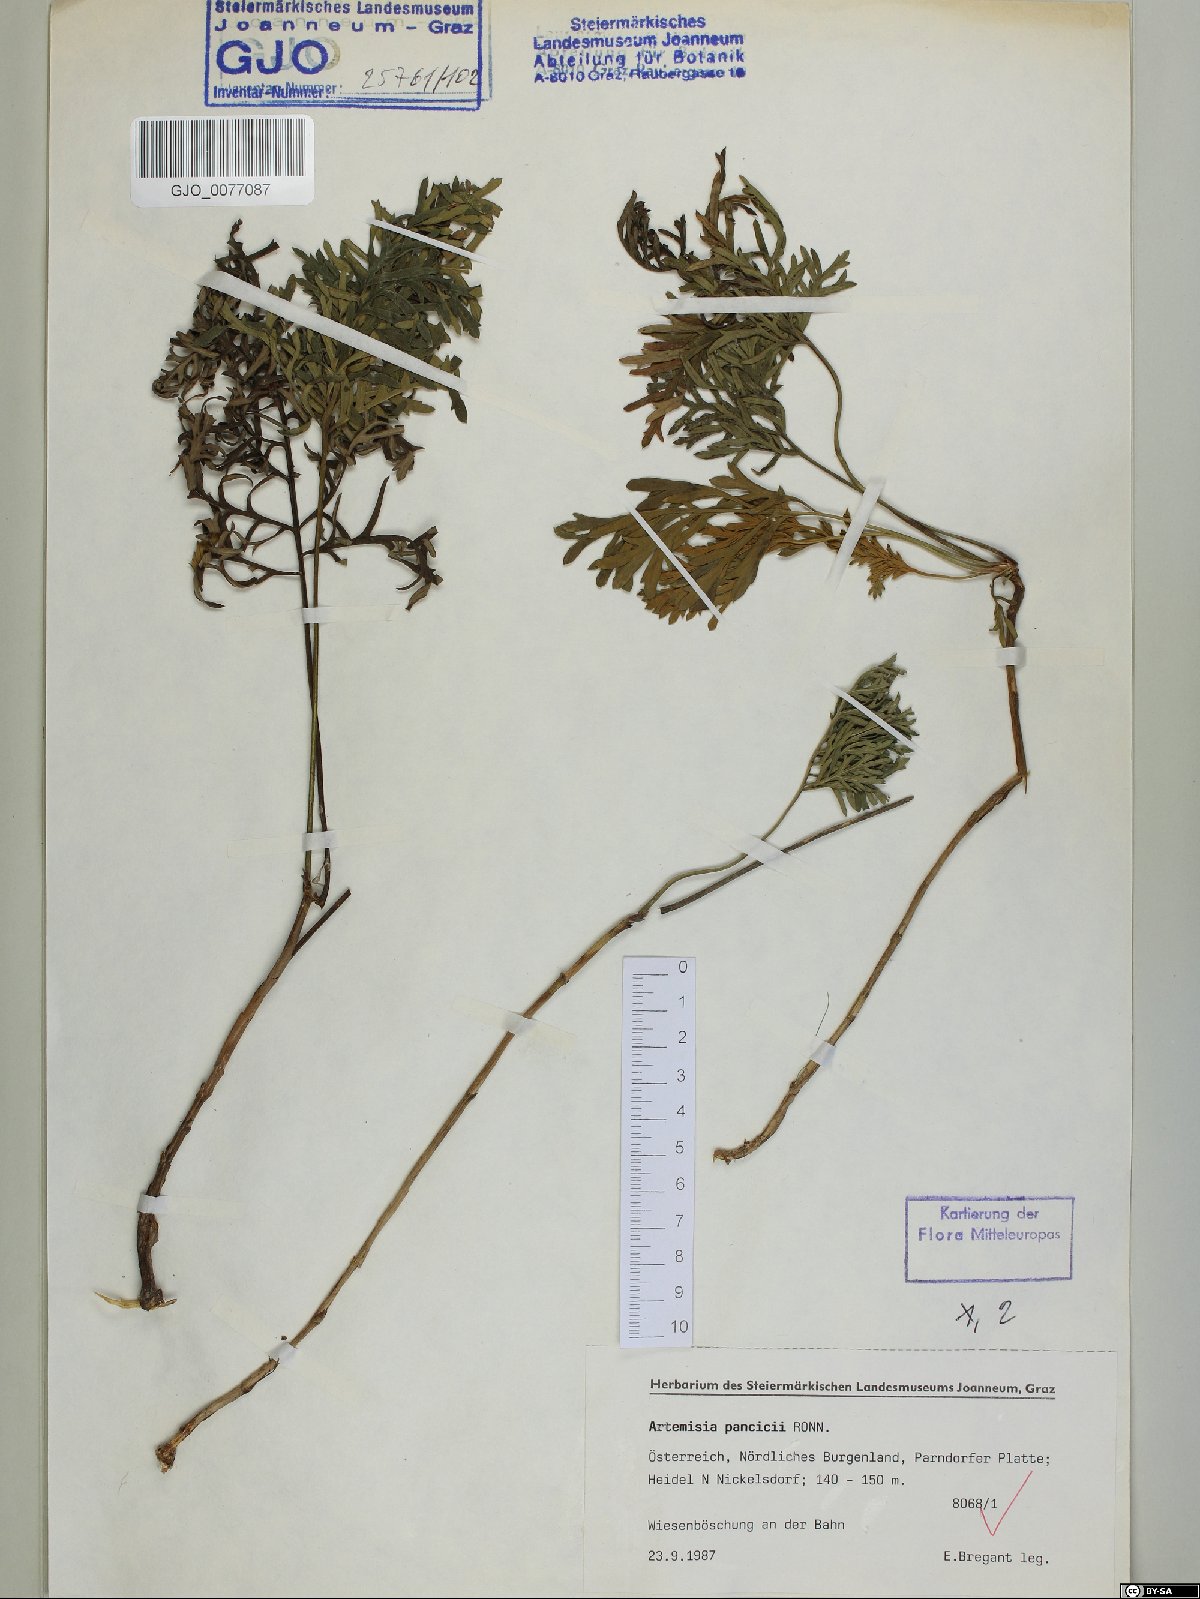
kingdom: Plantae
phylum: Tracheophyta
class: Magnoliopsida
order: Asterales
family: Asteraceae
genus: Artemisia
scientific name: Artemisia pancicii
